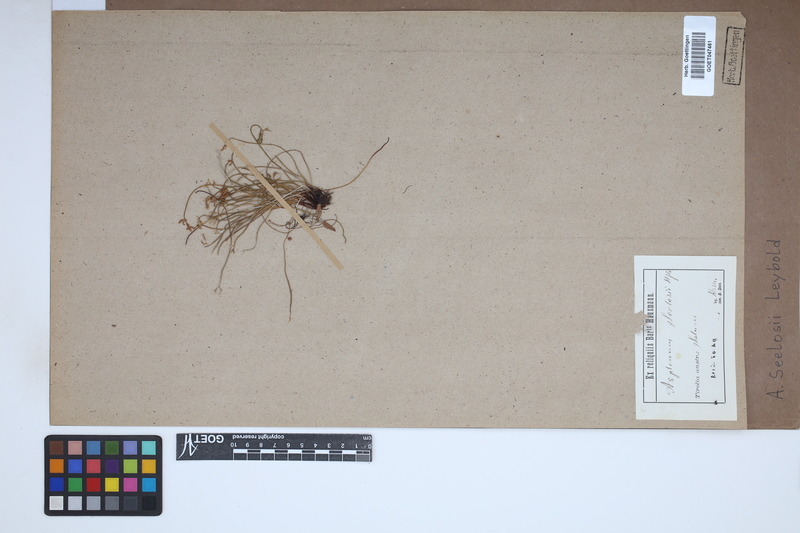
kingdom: Plantae
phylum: Tracheophyta
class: Polypodiopsida
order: Polypodiales
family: Aspleniaceae
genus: Asplenium
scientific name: Asplenium seelosii
